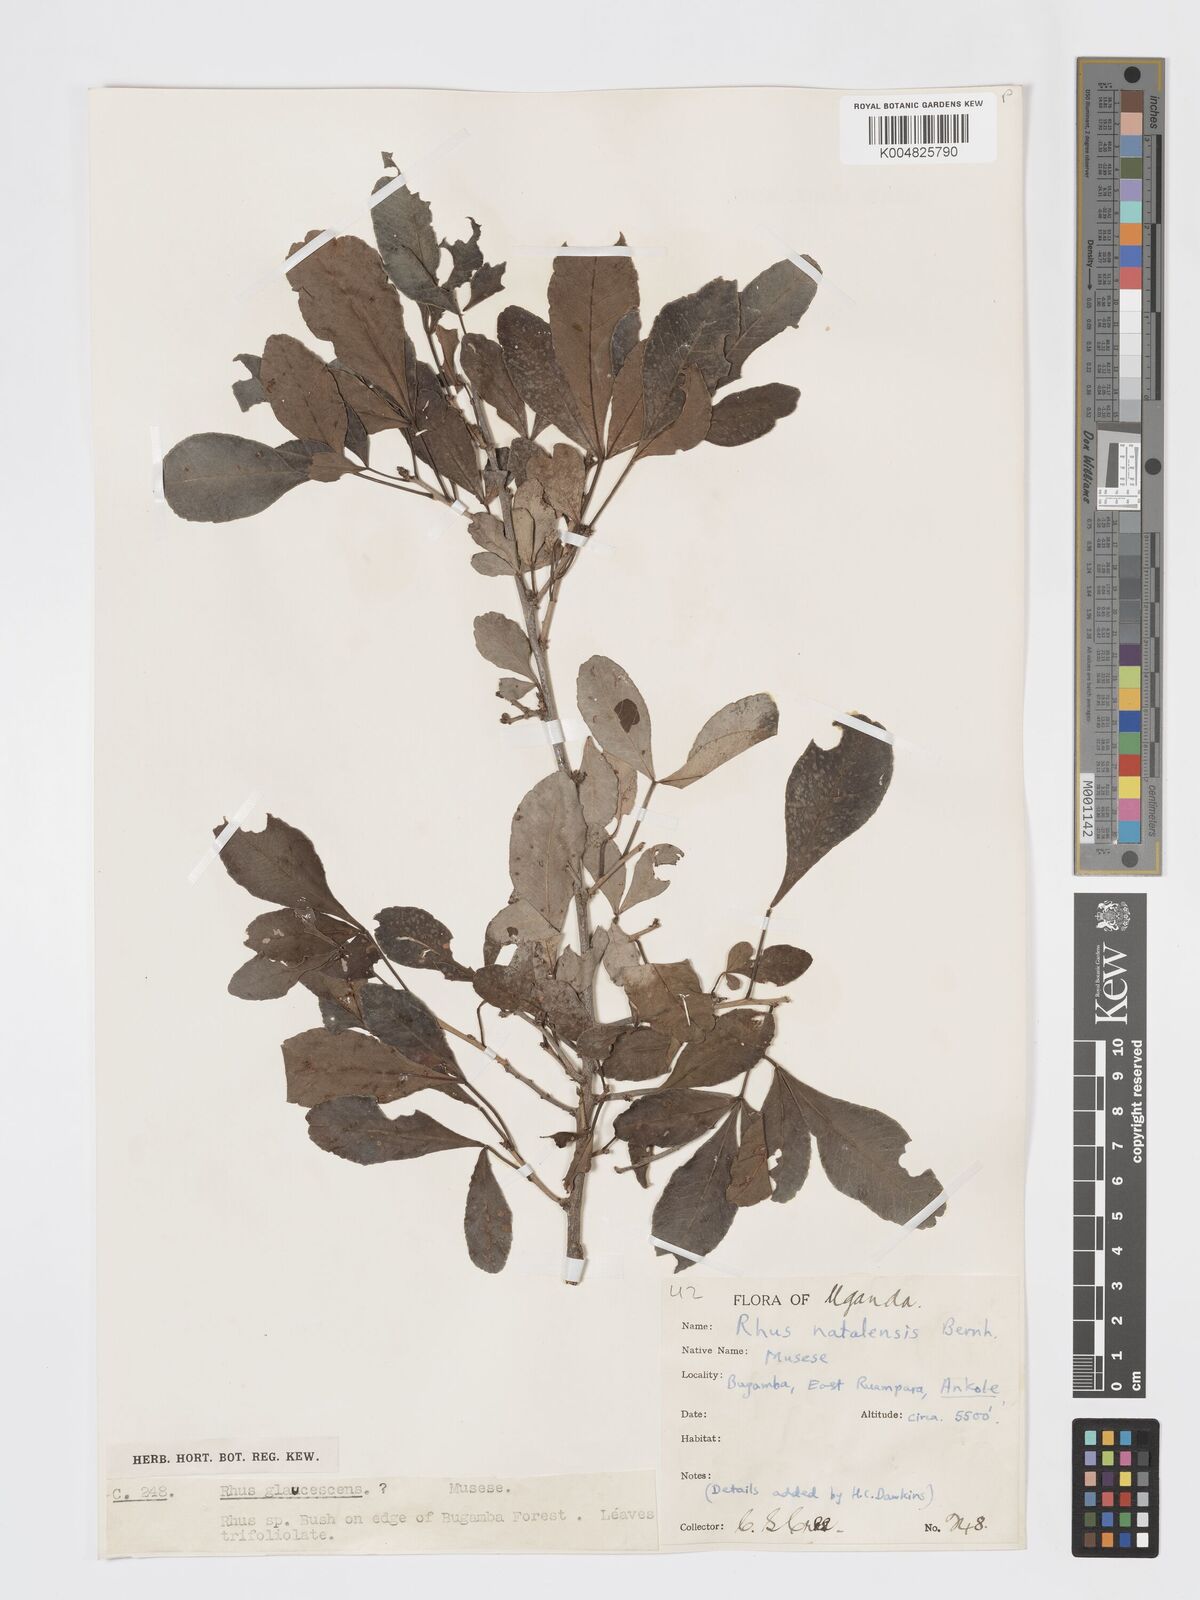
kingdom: Plantae
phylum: Tracheophyta
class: Magnoliopsida
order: Sapindales
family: Anacardiaceae
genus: Searsia
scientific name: Searsia natalensis
